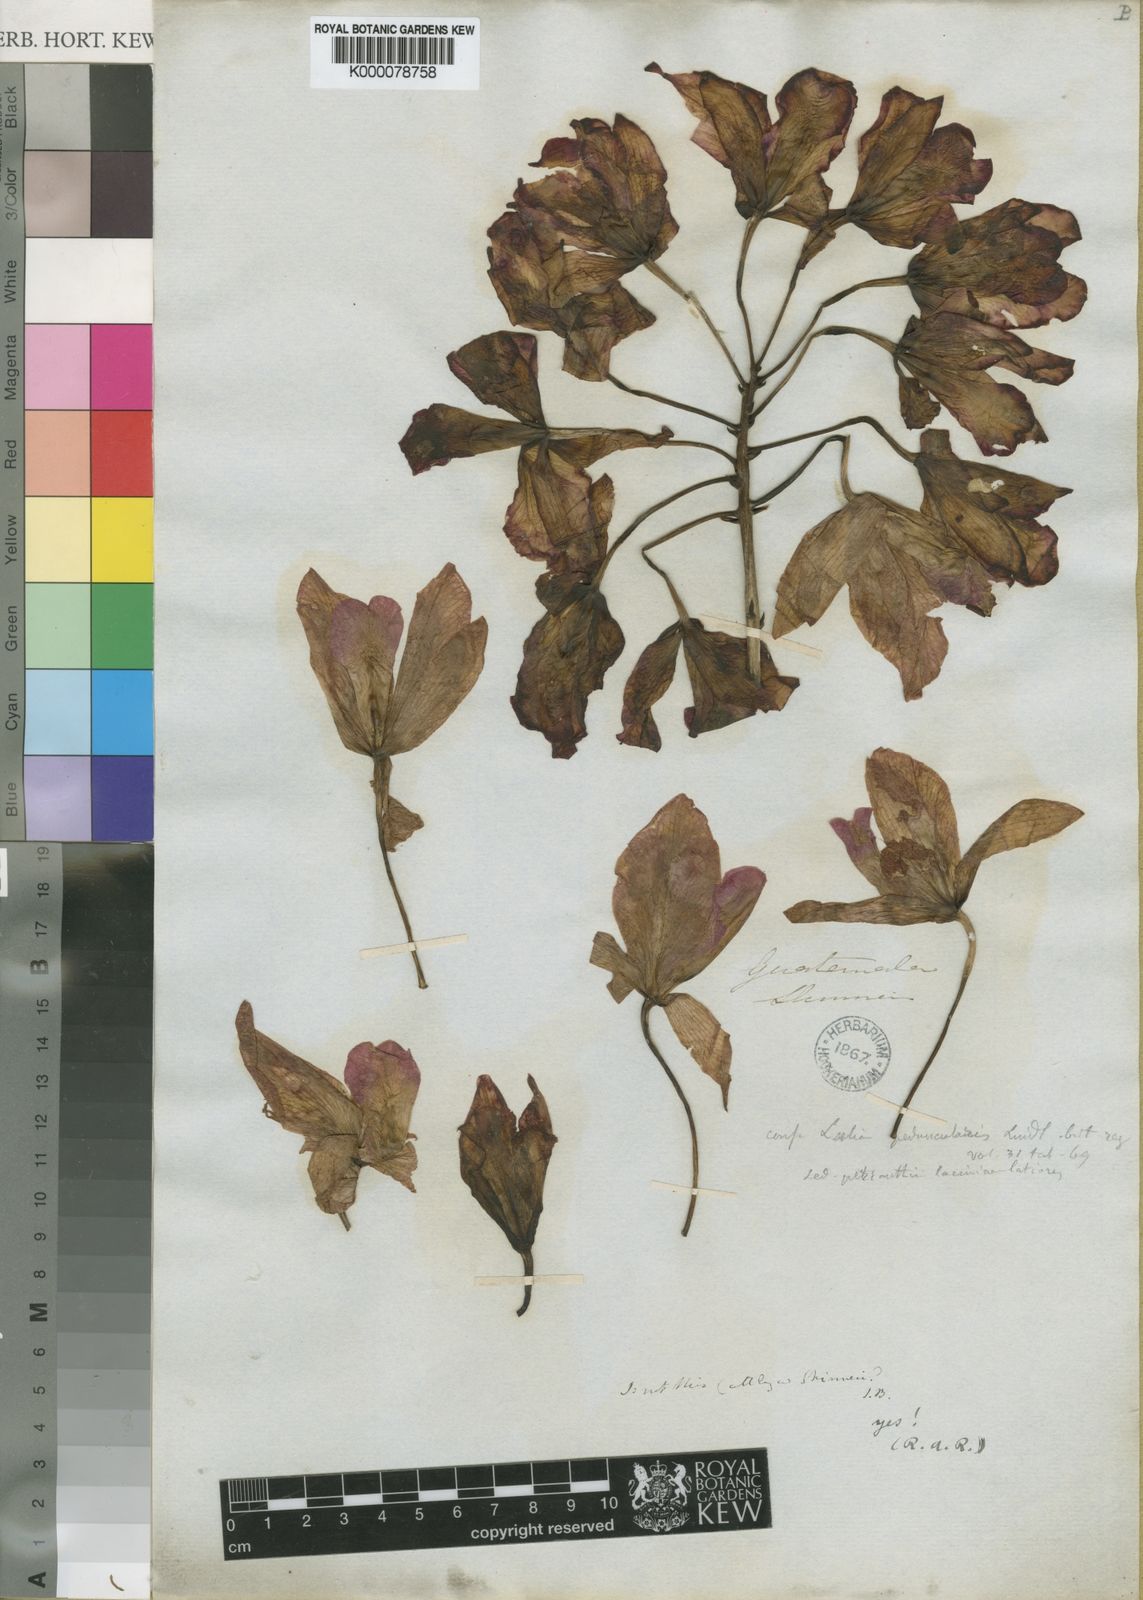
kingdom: Plantae
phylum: Tracheophyta
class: Liliopsida
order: Asparagales
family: Orchidaceae
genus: Guarianthe
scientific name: Guarianthe skinneri
